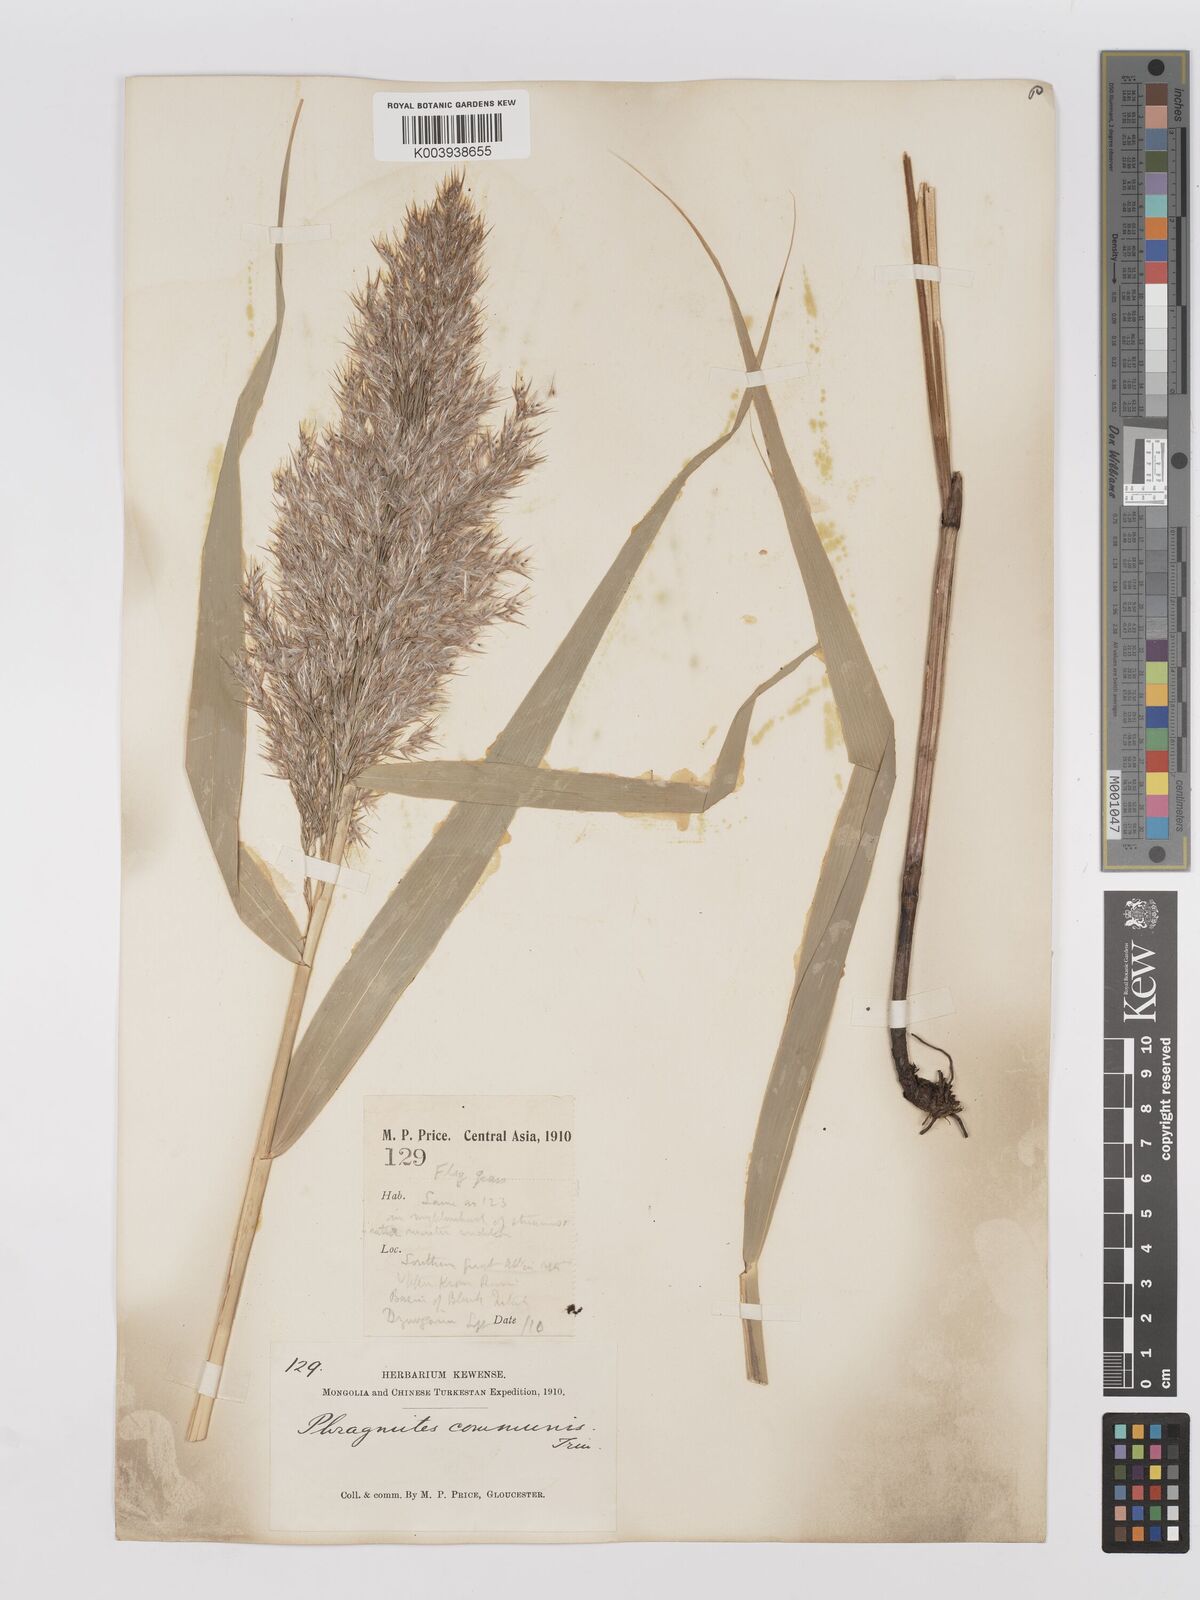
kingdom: Plantae
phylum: Tracheophyta
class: Liliopsida
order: Poales
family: Poaceae
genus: Phragmites
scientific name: Phragmites australis
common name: Common reed
